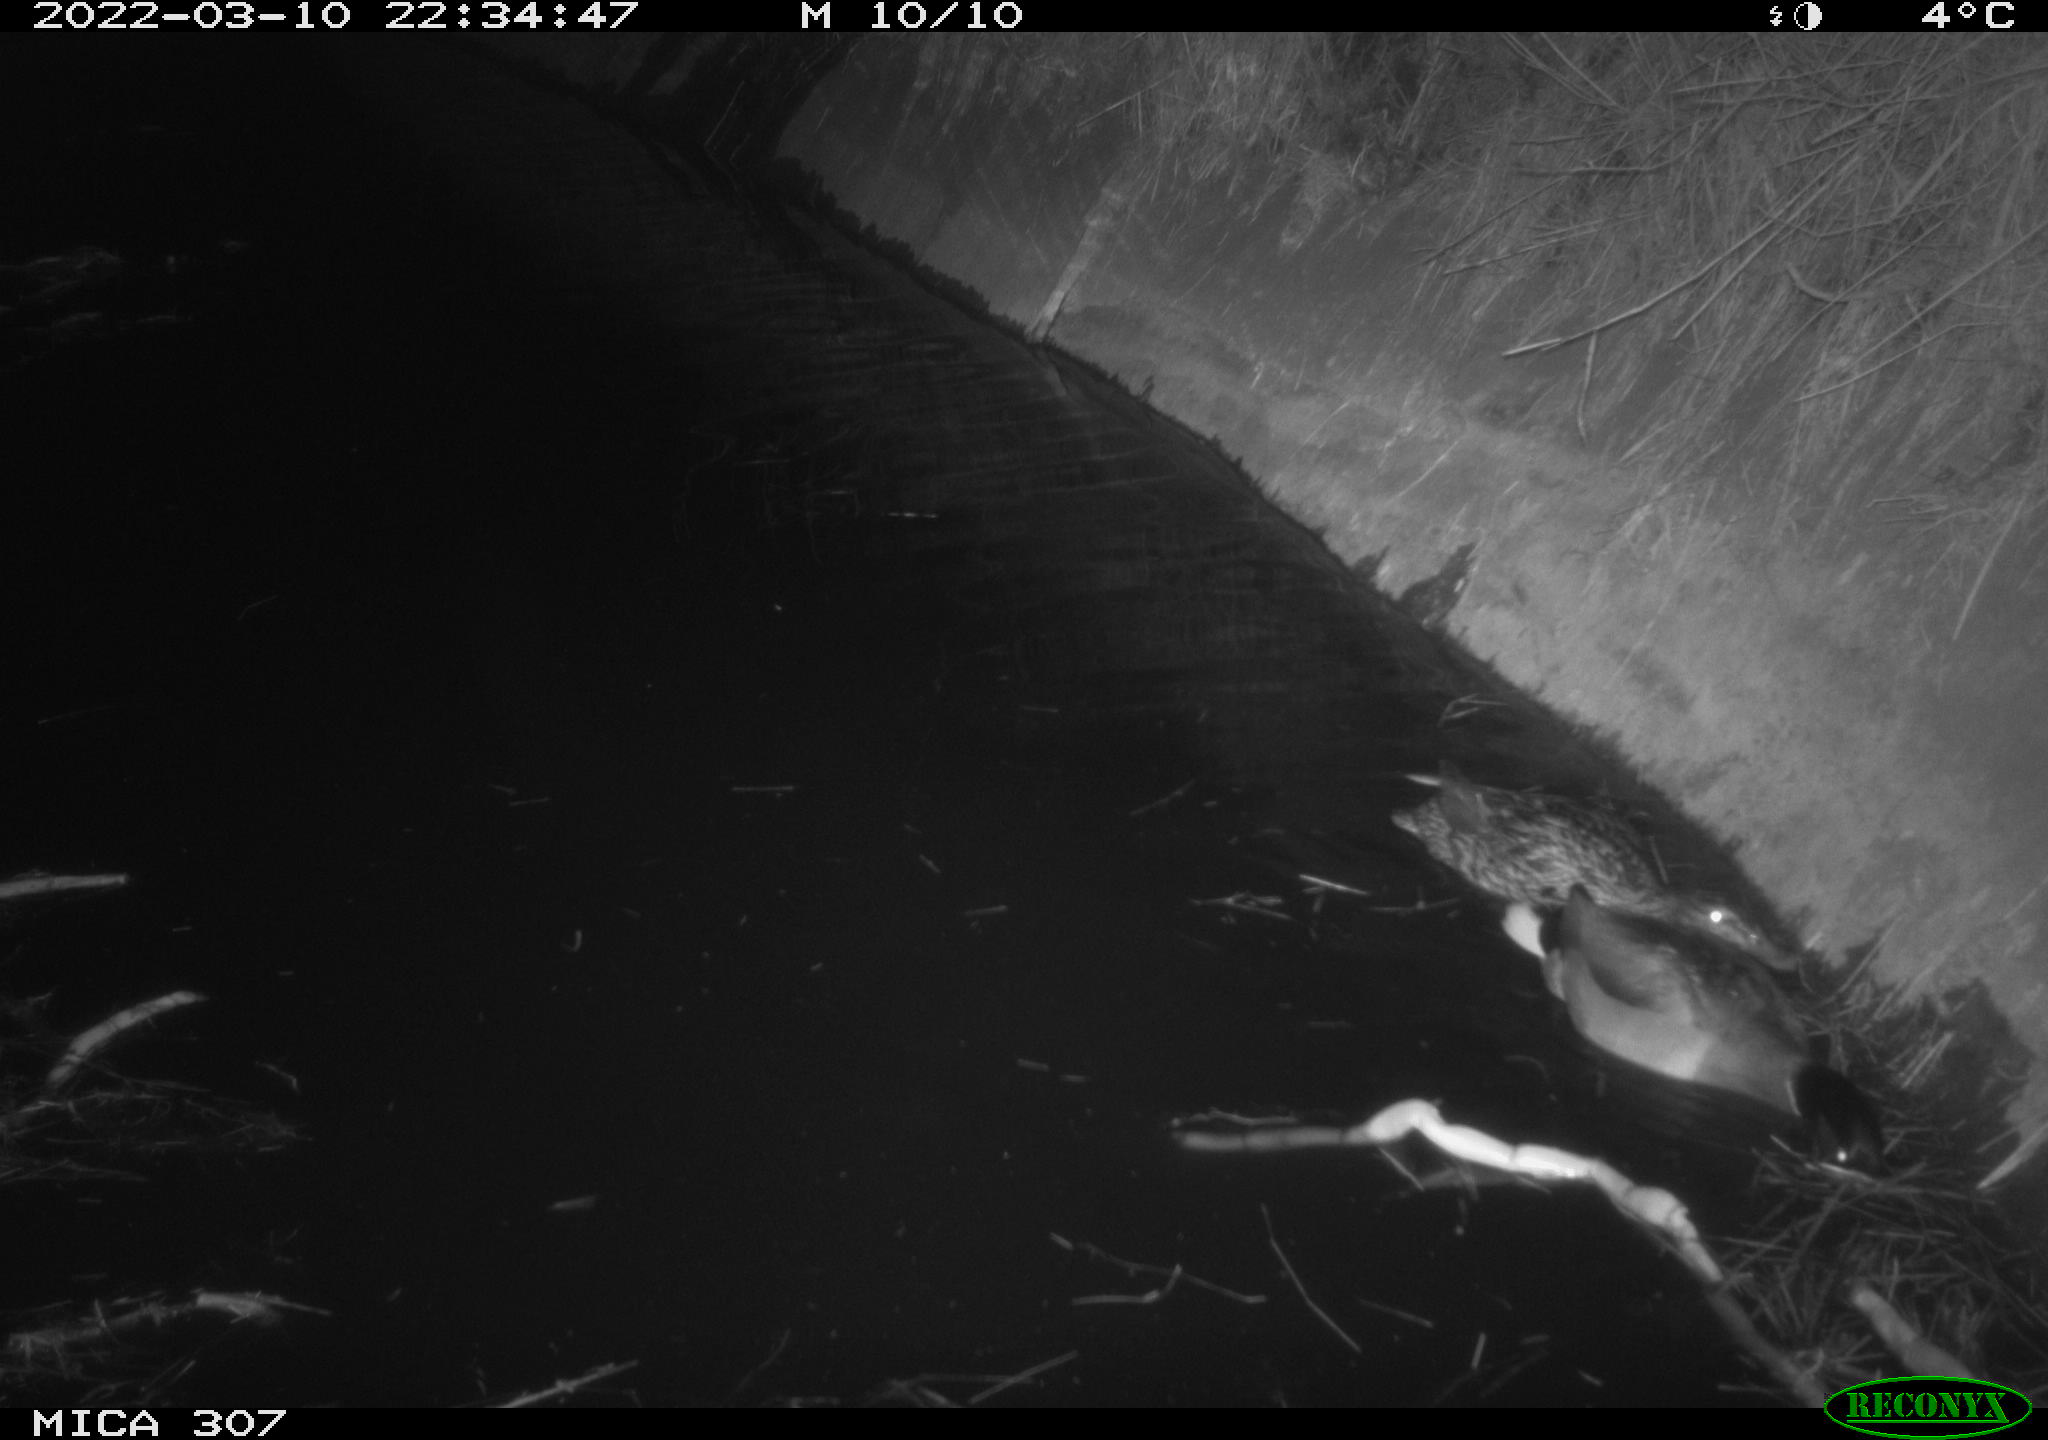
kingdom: Animalia
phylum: Chordata
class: Aves
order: Anseriformes
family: Anatidae
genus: Anas
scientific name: Anas platyrhynchos
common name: Mallard
